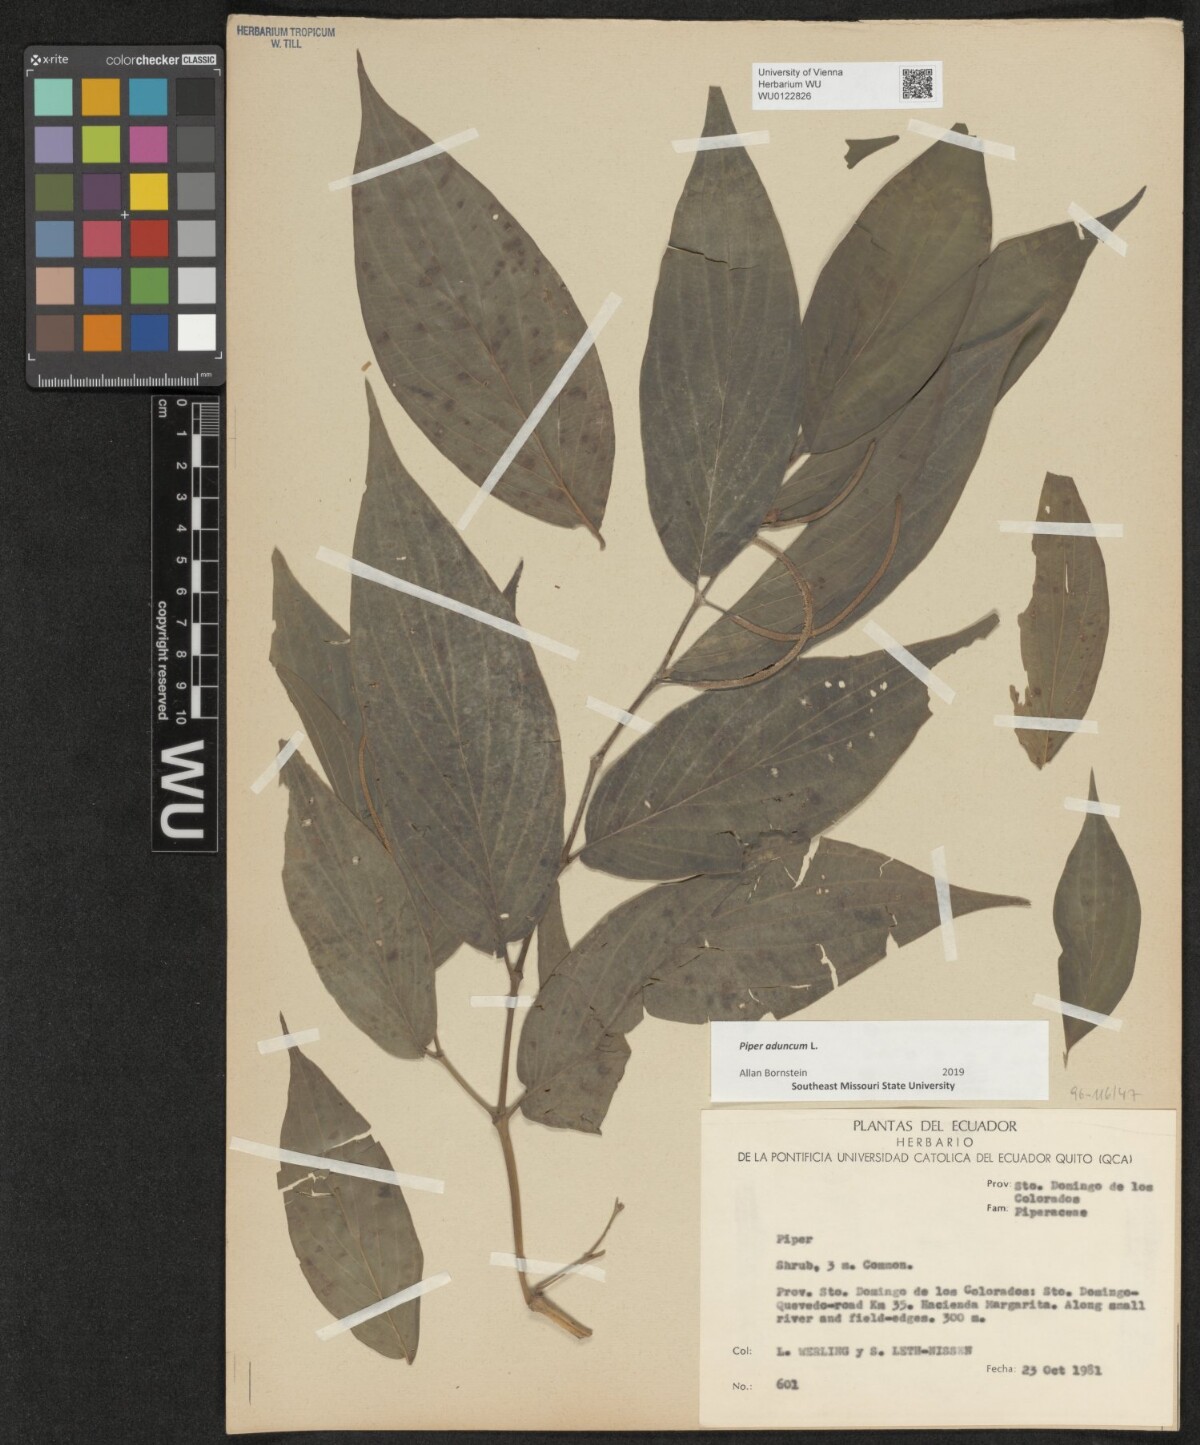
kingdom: Plantae
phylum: Tracheophyta
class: Magnoliopsida
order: Piperales
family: Piperaceae
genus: Piper
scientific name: Piper aduncum
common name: Spiked pepper
